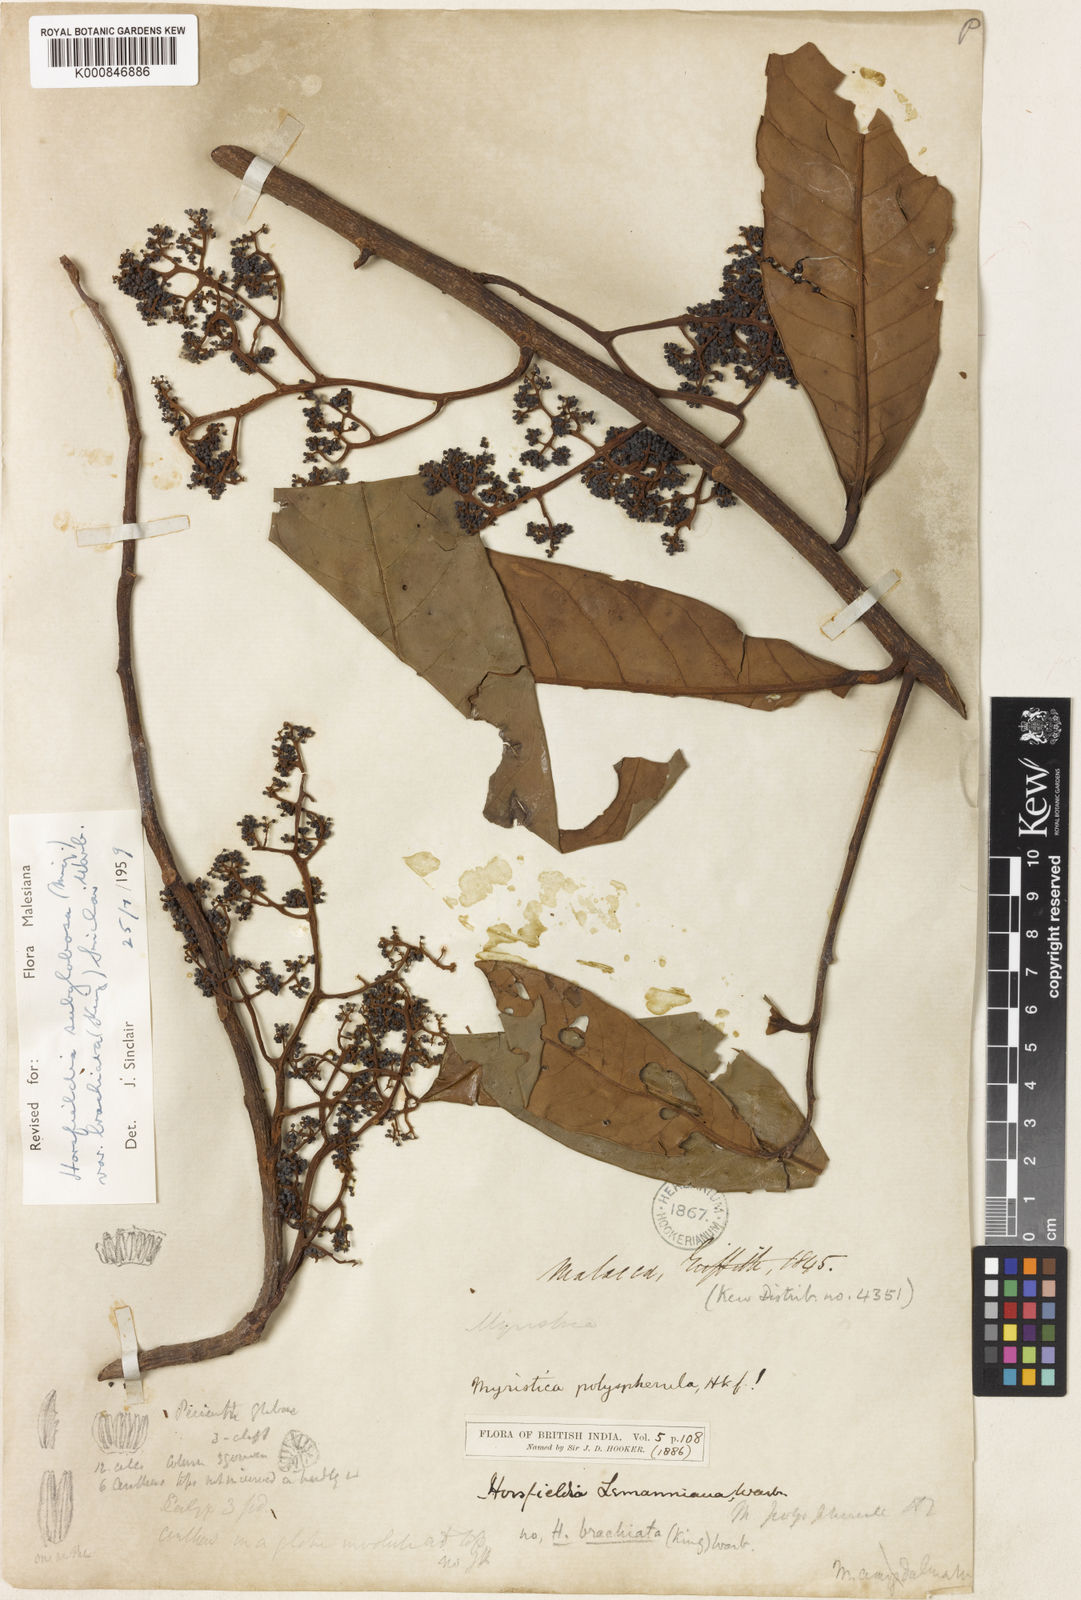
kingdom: Plantae
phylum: Tracheophyta
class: Magnoliopsida
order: Magnoliales
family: Myristicaceae
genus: Horsfieldia
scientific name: Horsfieldia irya
